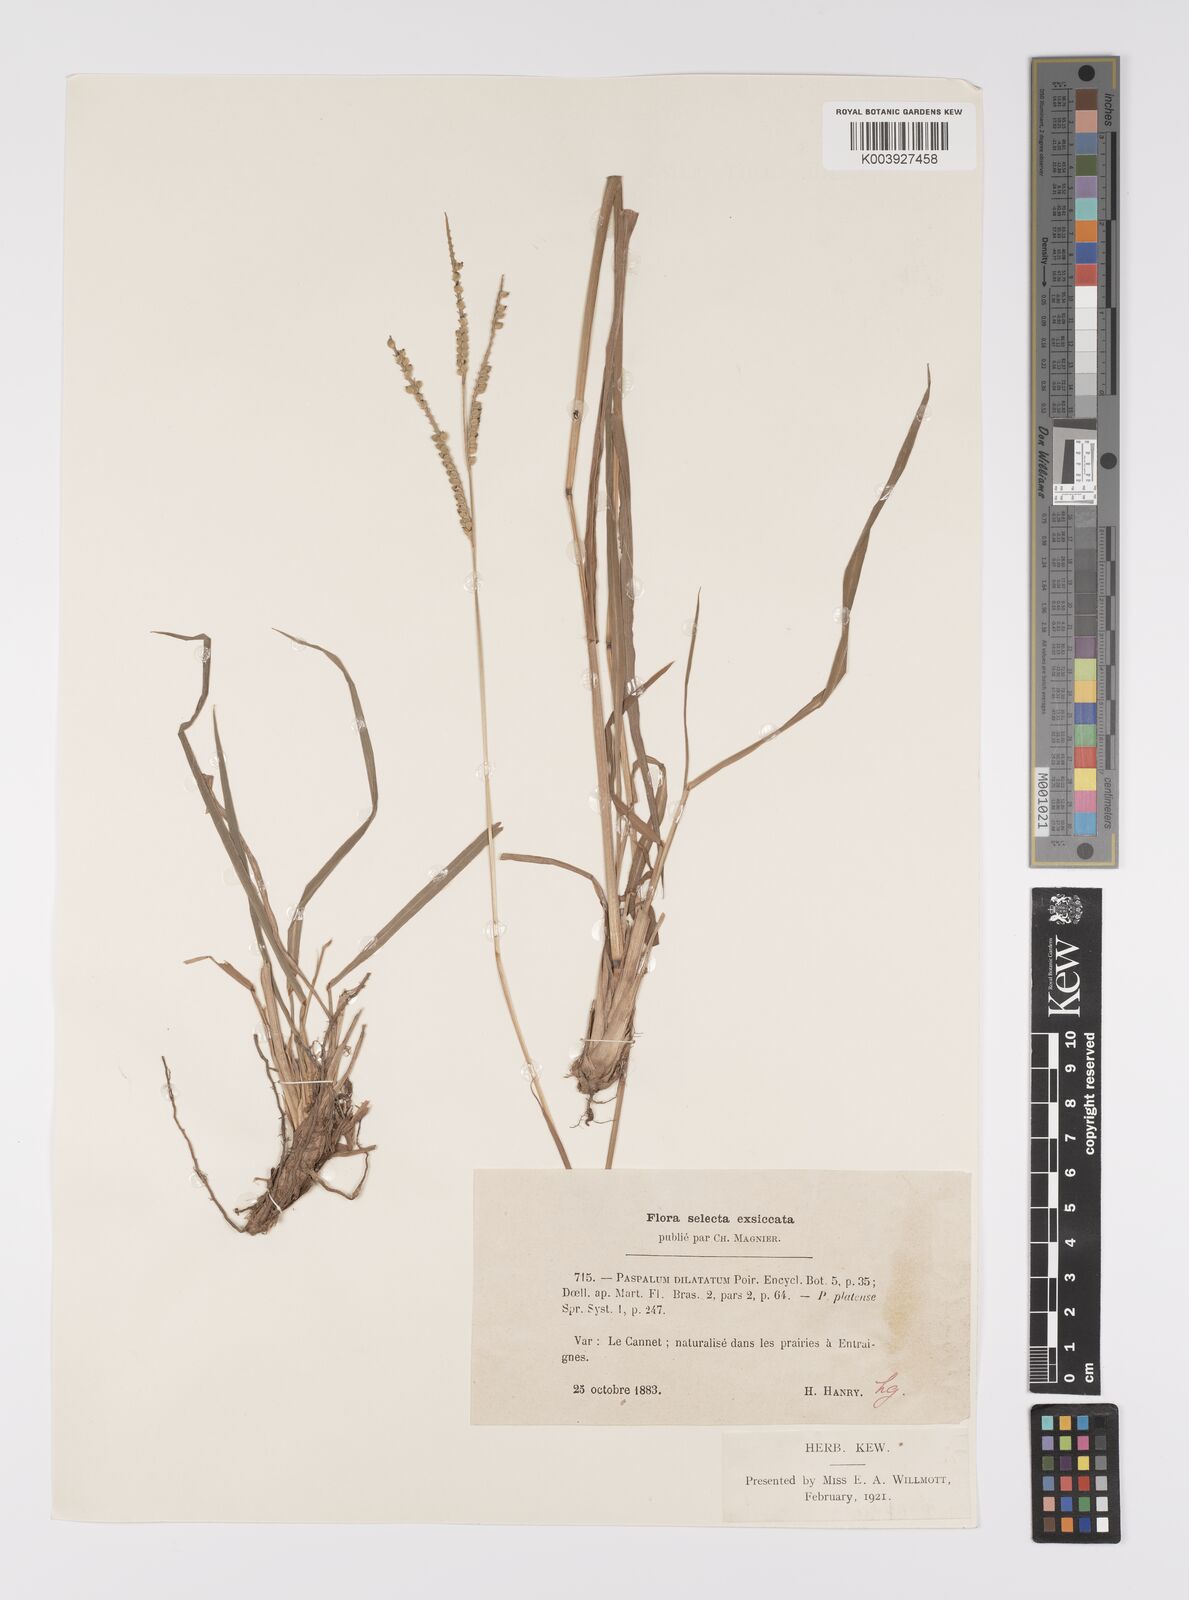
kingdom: Plantae
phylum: Tracheophyta
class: Liliopsida
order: Poales
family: Poaceae
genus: Paspalum
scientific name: Paspalum dilatatum
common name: Dallisgrass
